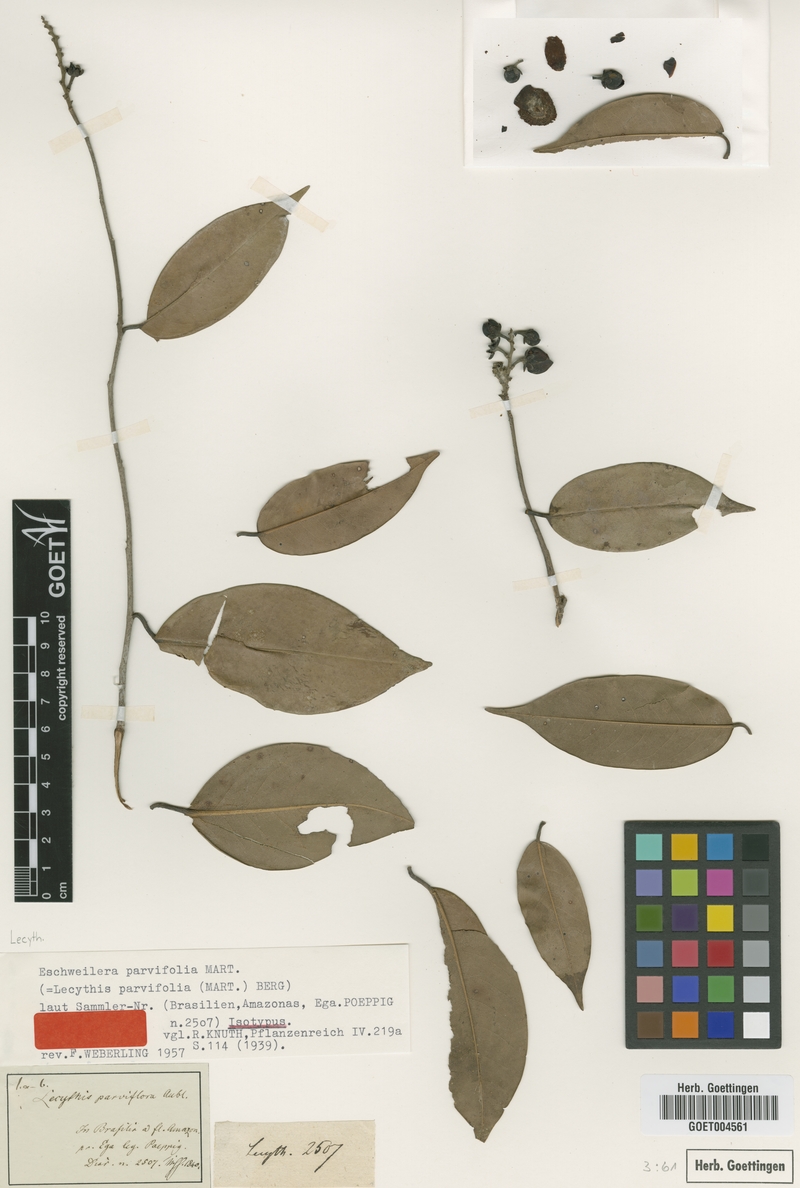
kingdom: Plantae
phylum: Tracheophyta
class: Magnoliopsida
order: Ericales
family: Lecythidaceae
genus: Eschweilera
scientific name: Eschweilera parvifolia
